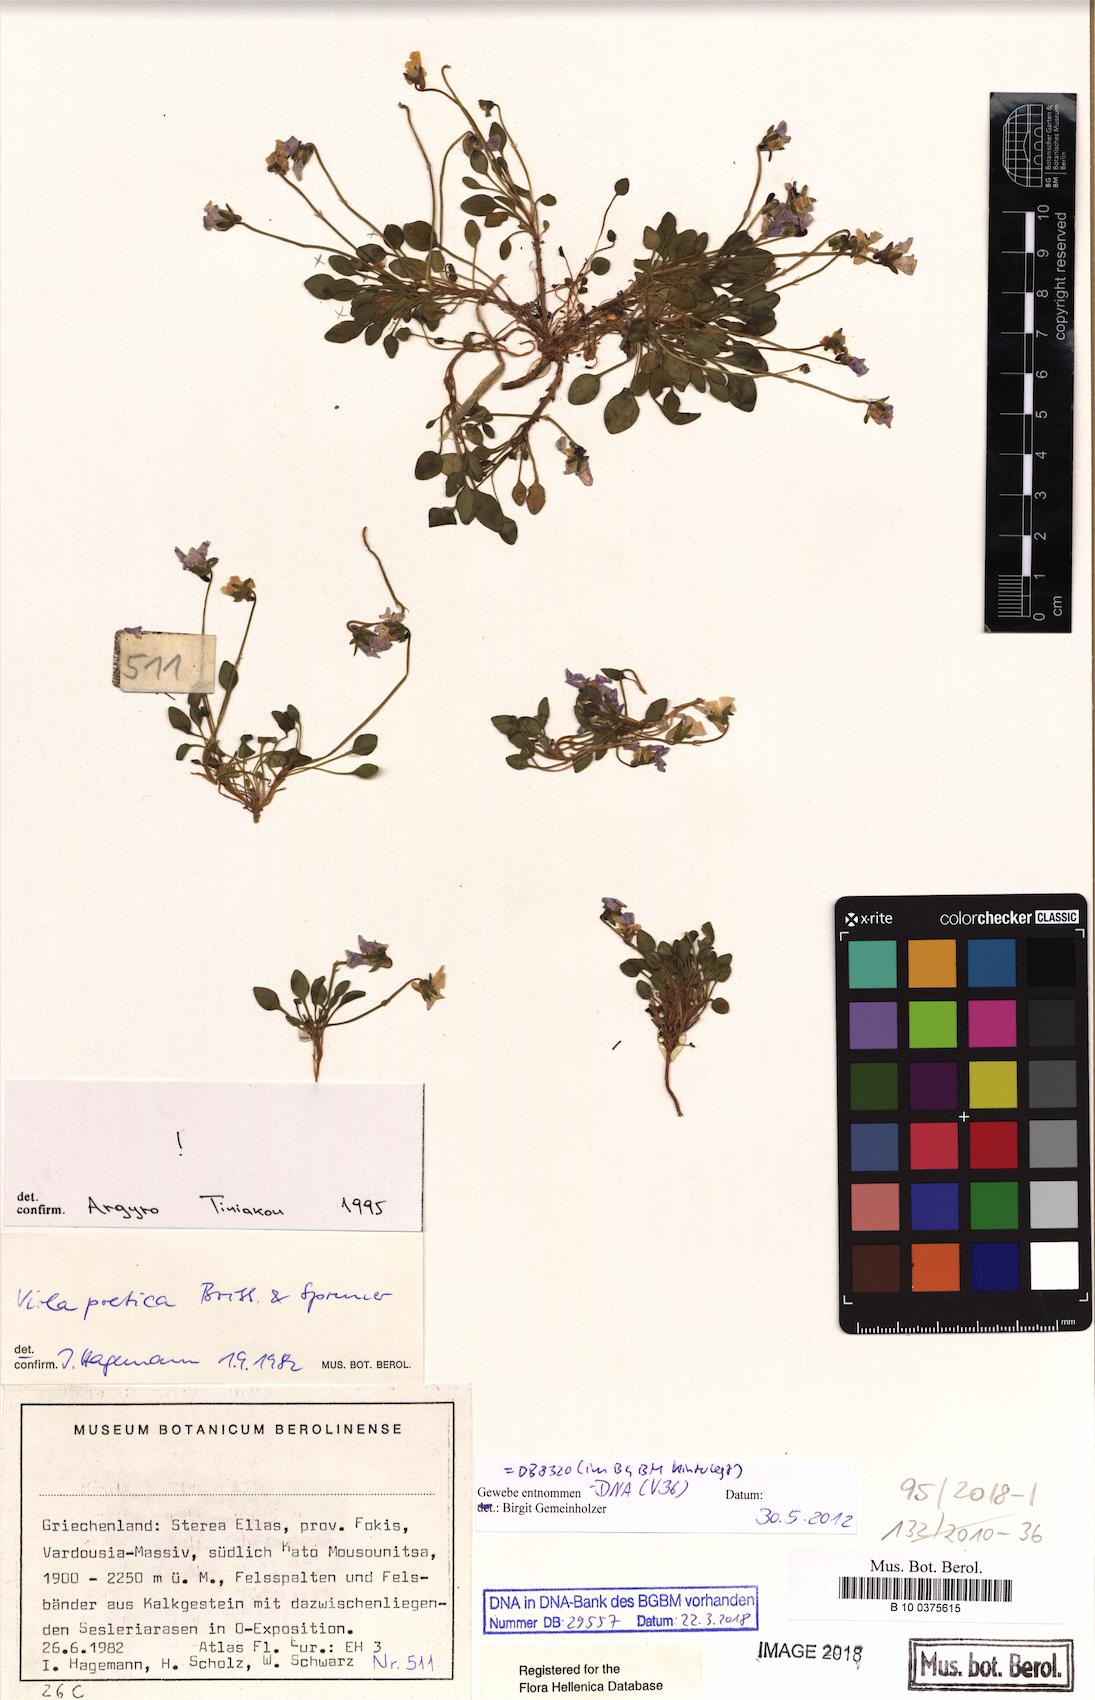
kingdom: Plantae
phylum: Tracheophyta
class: Magnoliopsida
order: Malpighiales
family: Violaceae
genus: Viola
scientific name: Viola poetica
